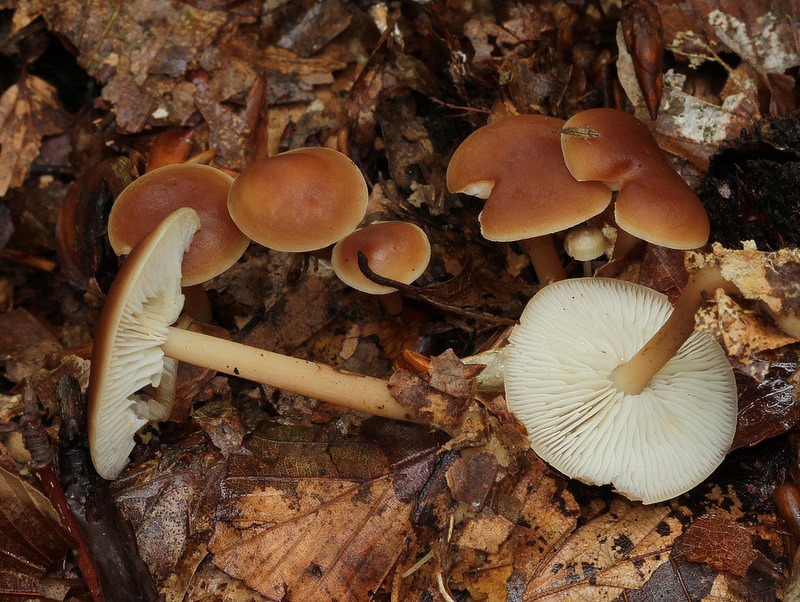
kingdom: Fungi
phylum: Basidiomycota
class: Agaricomycetes
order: Agaricales
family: Omphalotaceae
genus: Gymnopus
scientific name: Gymnopus ocior
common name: mørk fladhat
